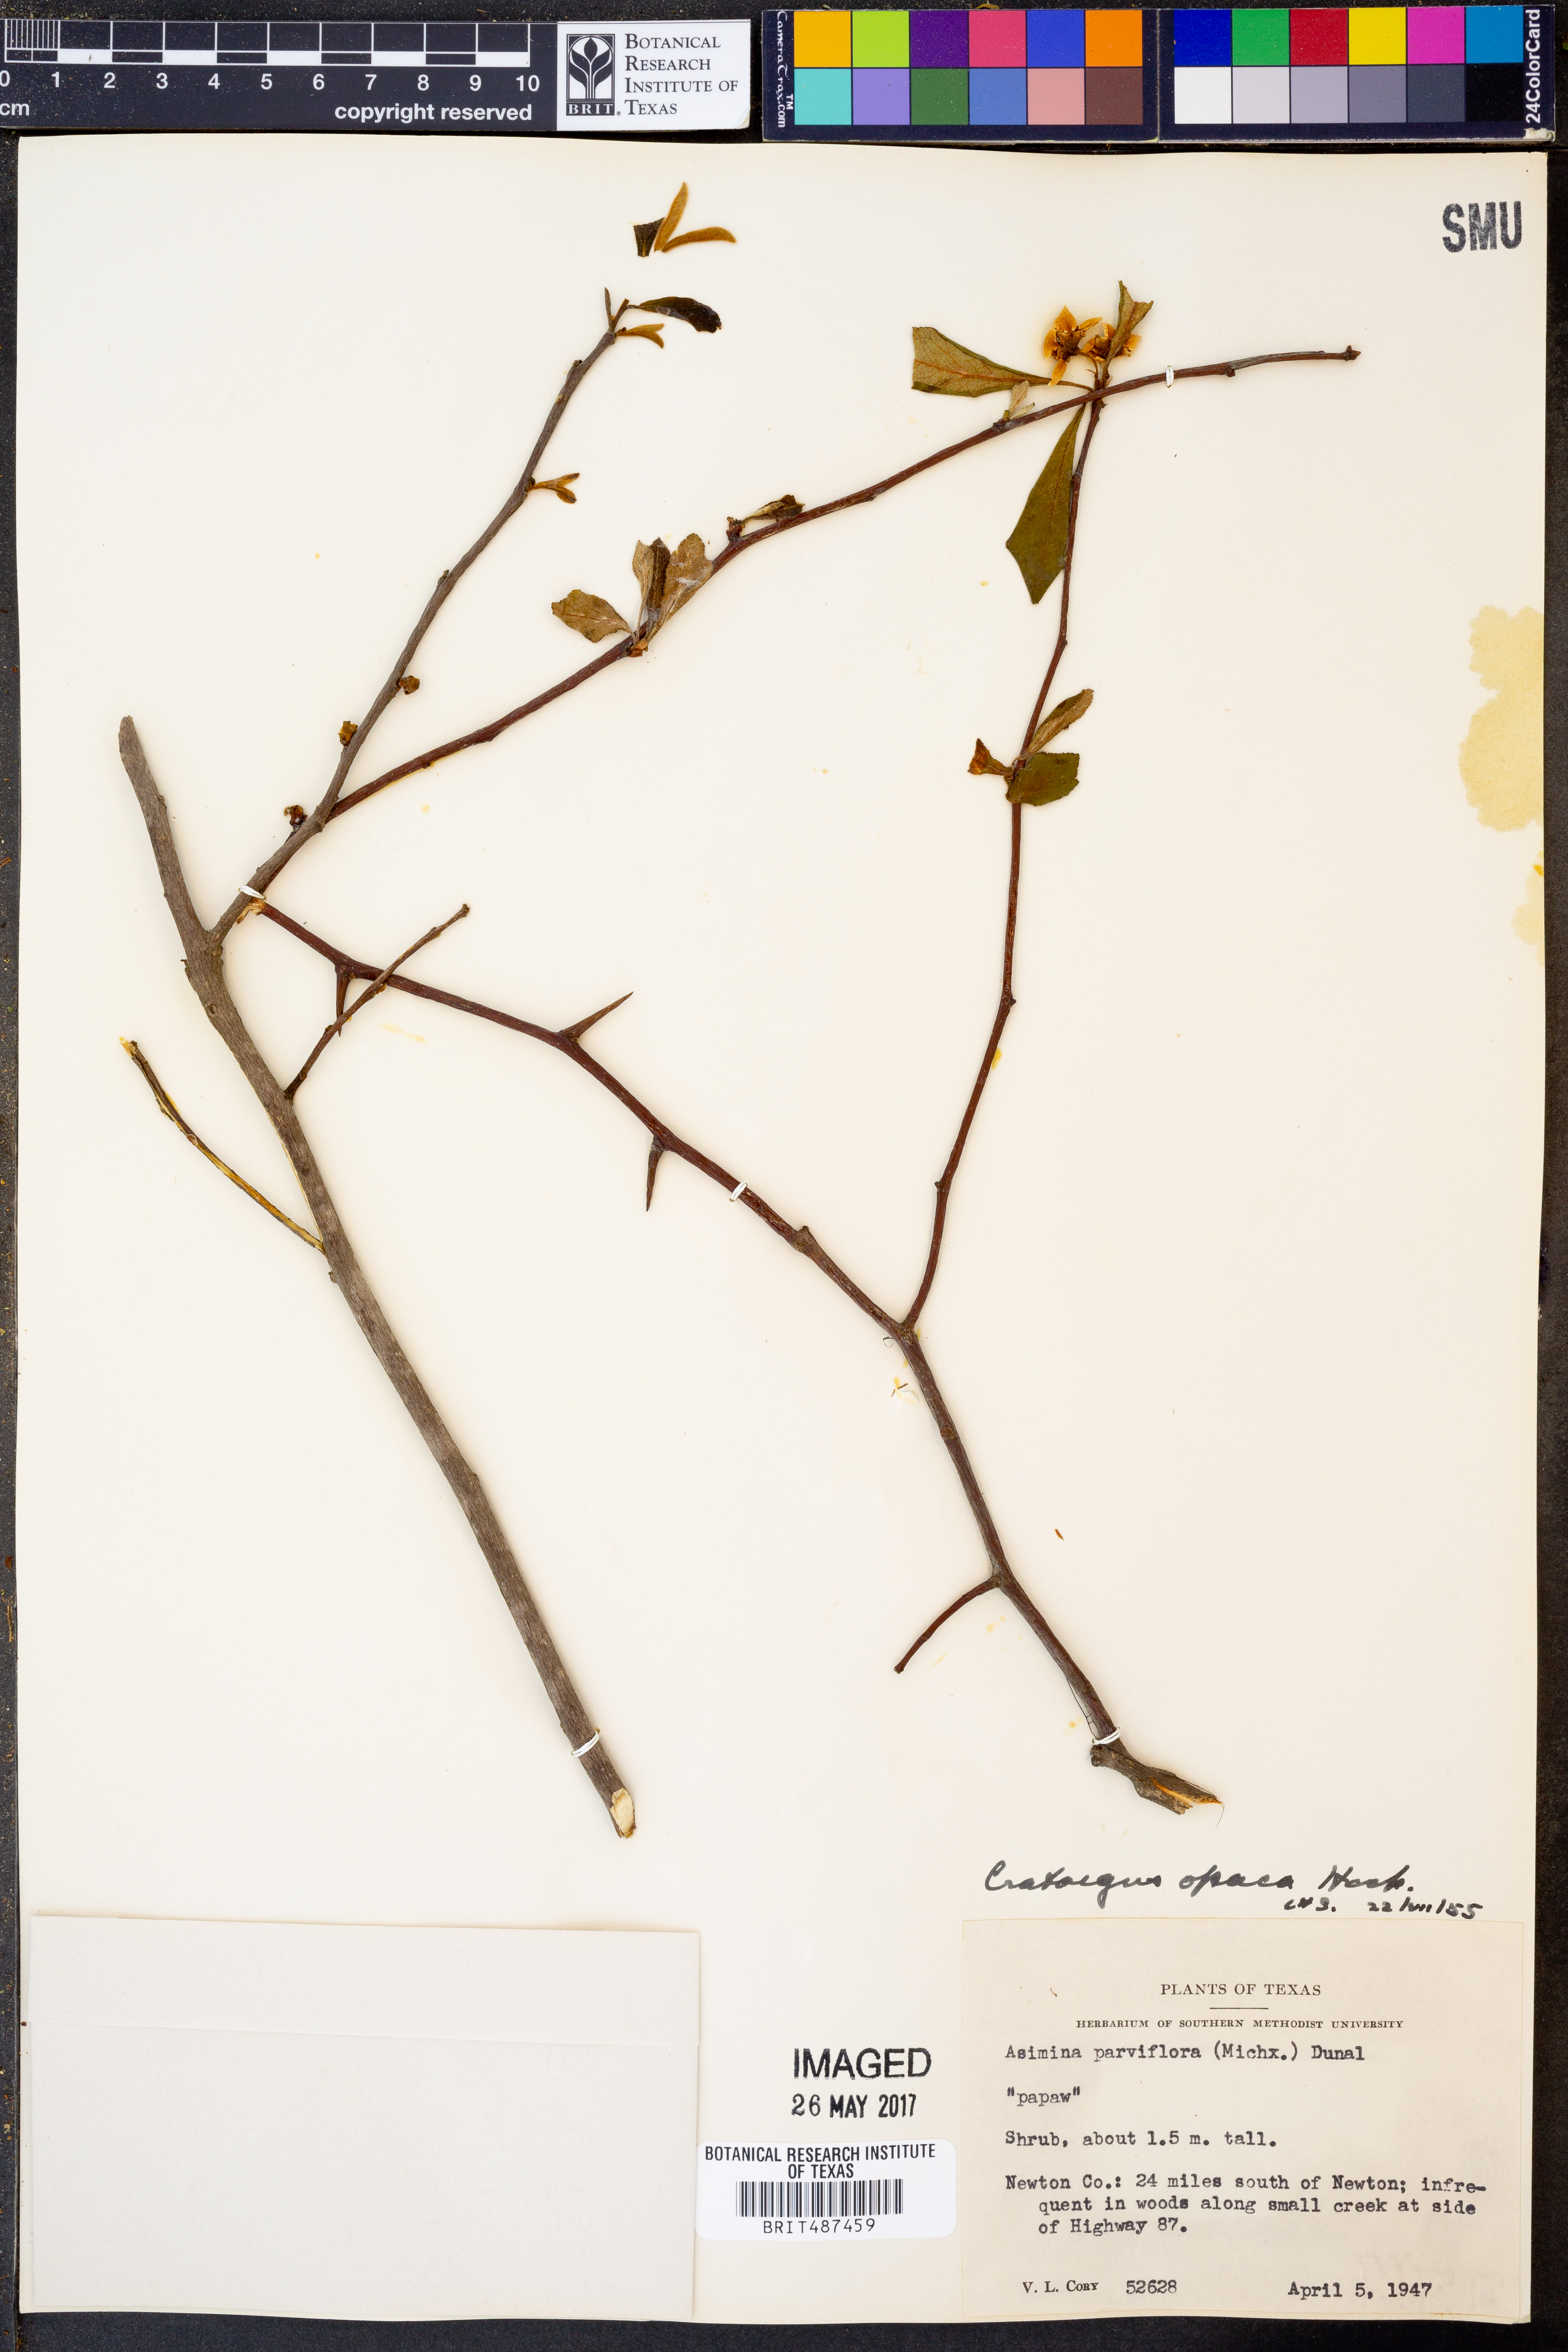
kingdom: Plantae
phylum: Tracheophyta
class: Magnoliopsida
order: Rosales
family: Rosaceae
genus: Crataegus
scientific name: Crataegus opaca
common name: Apple haw
